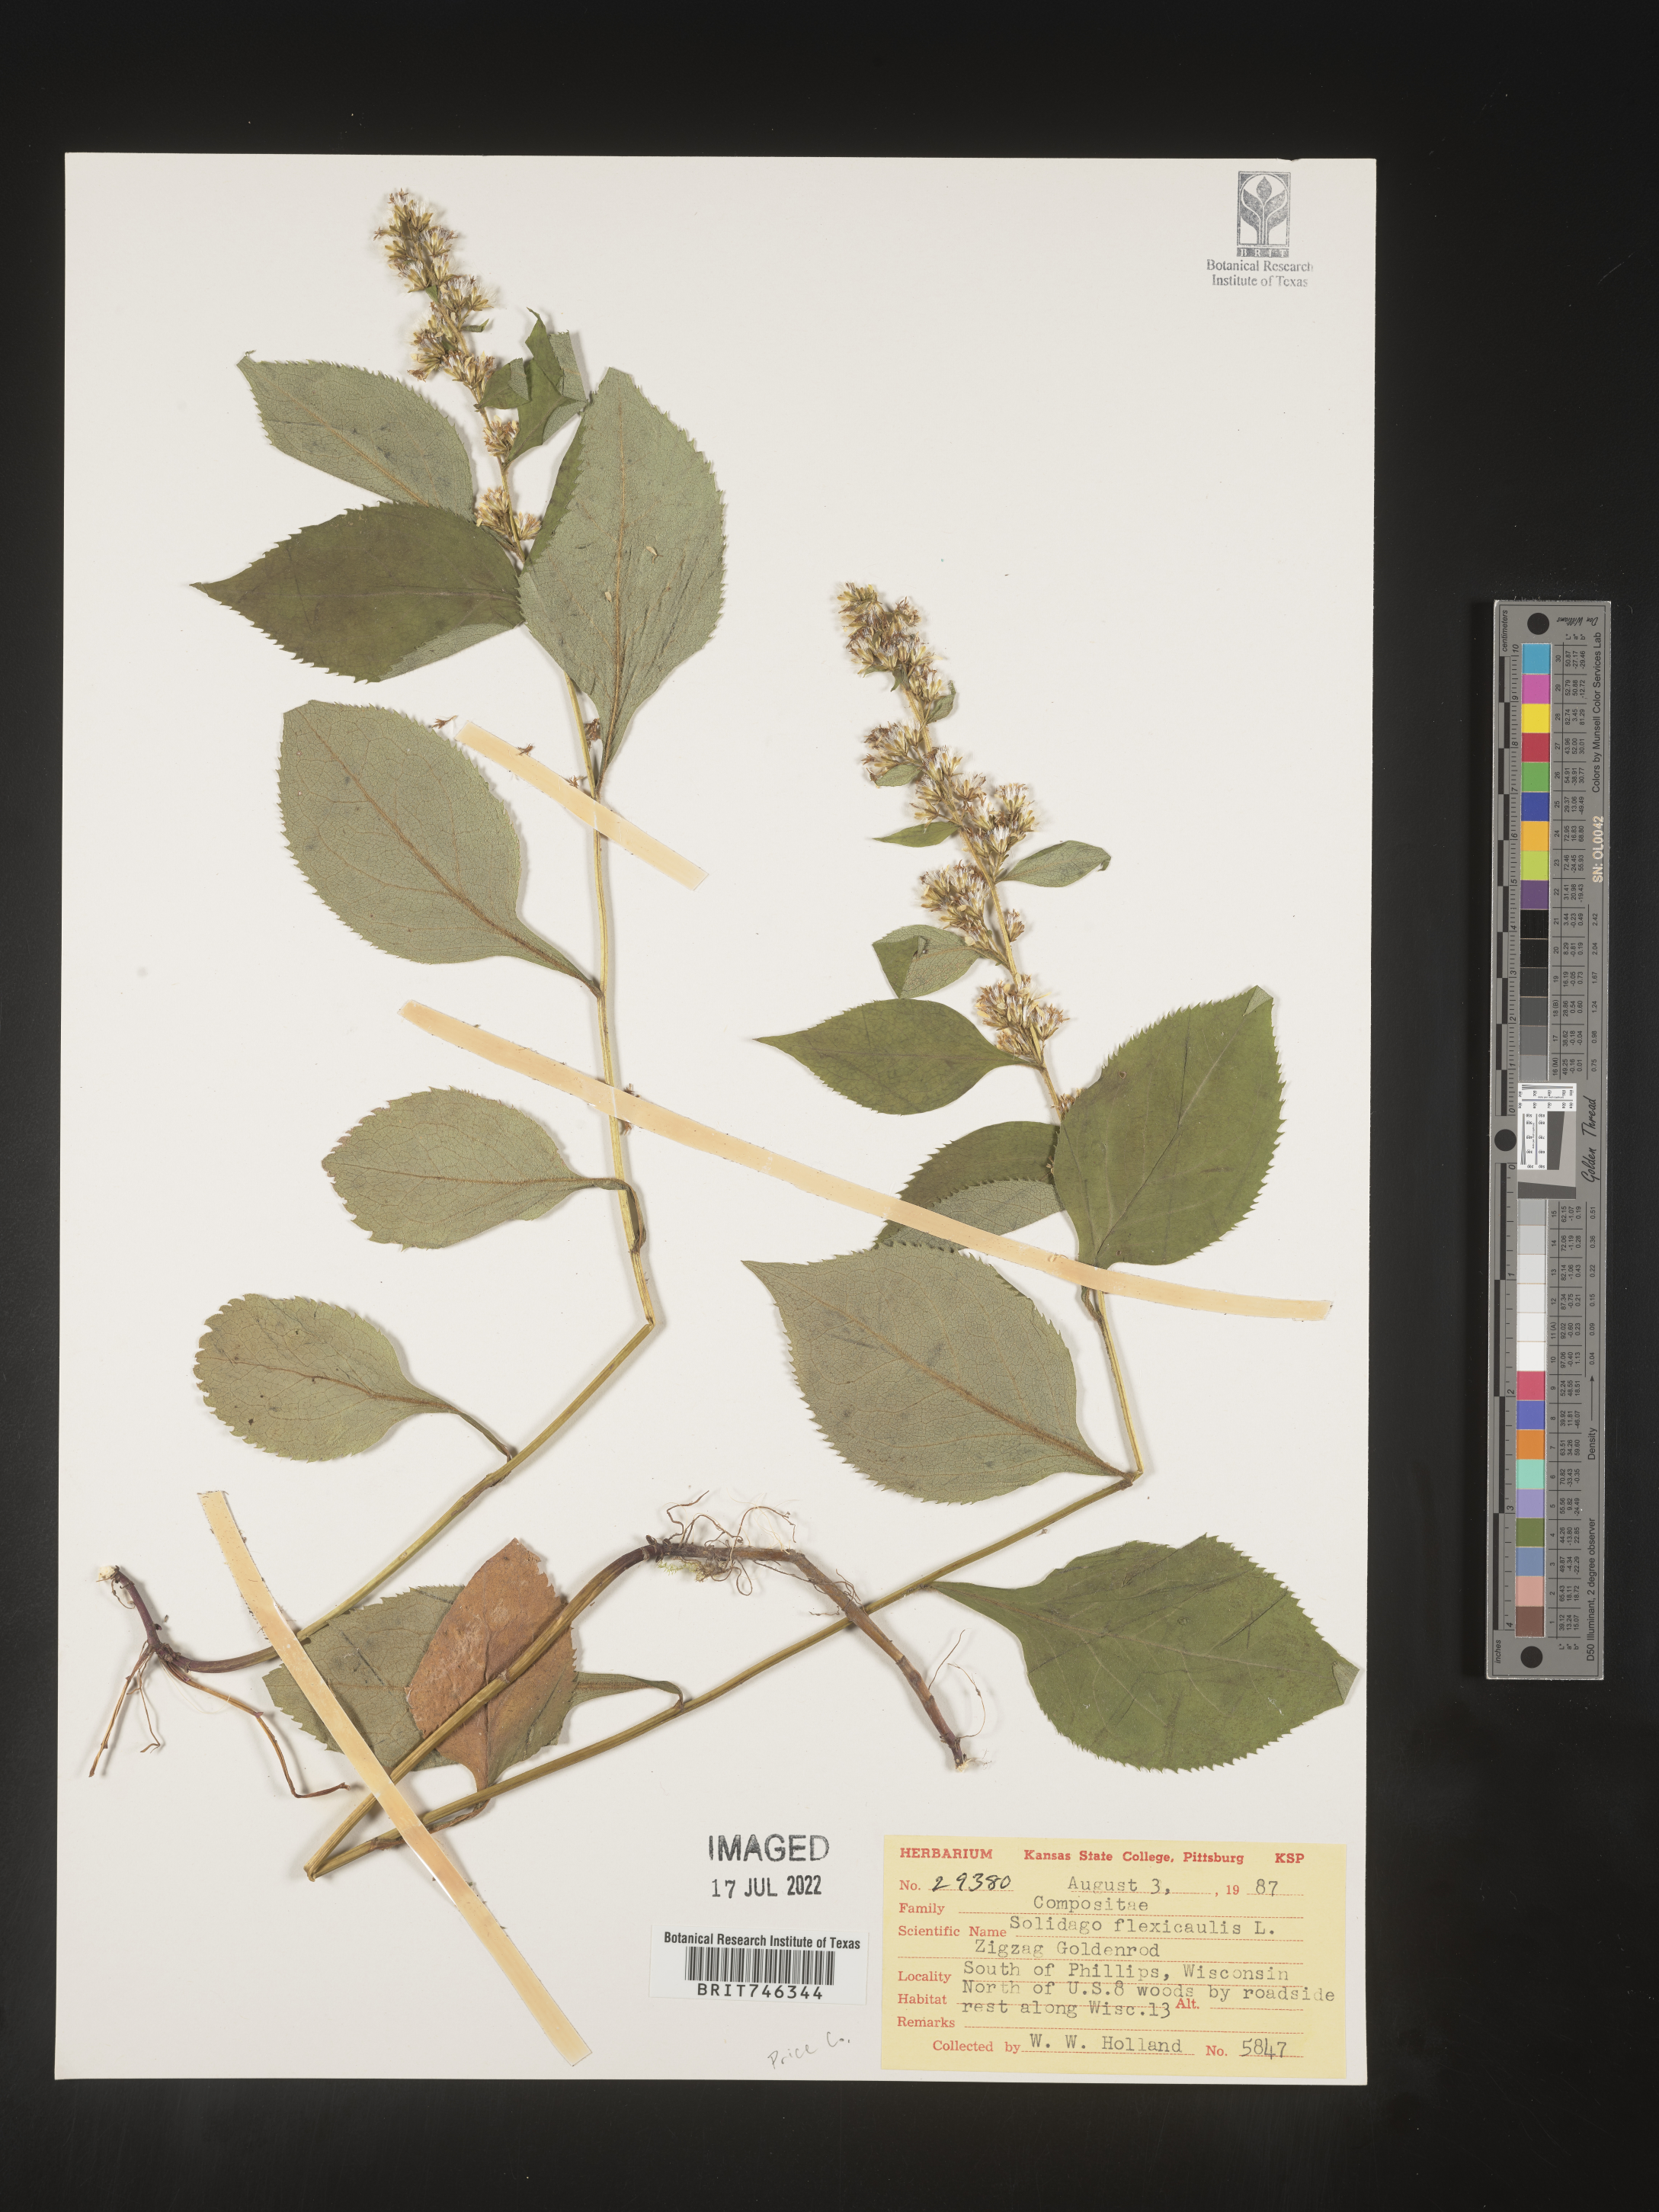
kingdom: Plantae
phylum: Tracheophyta
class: Magnoliopsida
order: Asterales
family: Asteraceae
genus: Solidago
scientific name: Solidago flexicaulis
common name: Zig-zag goldenrod
